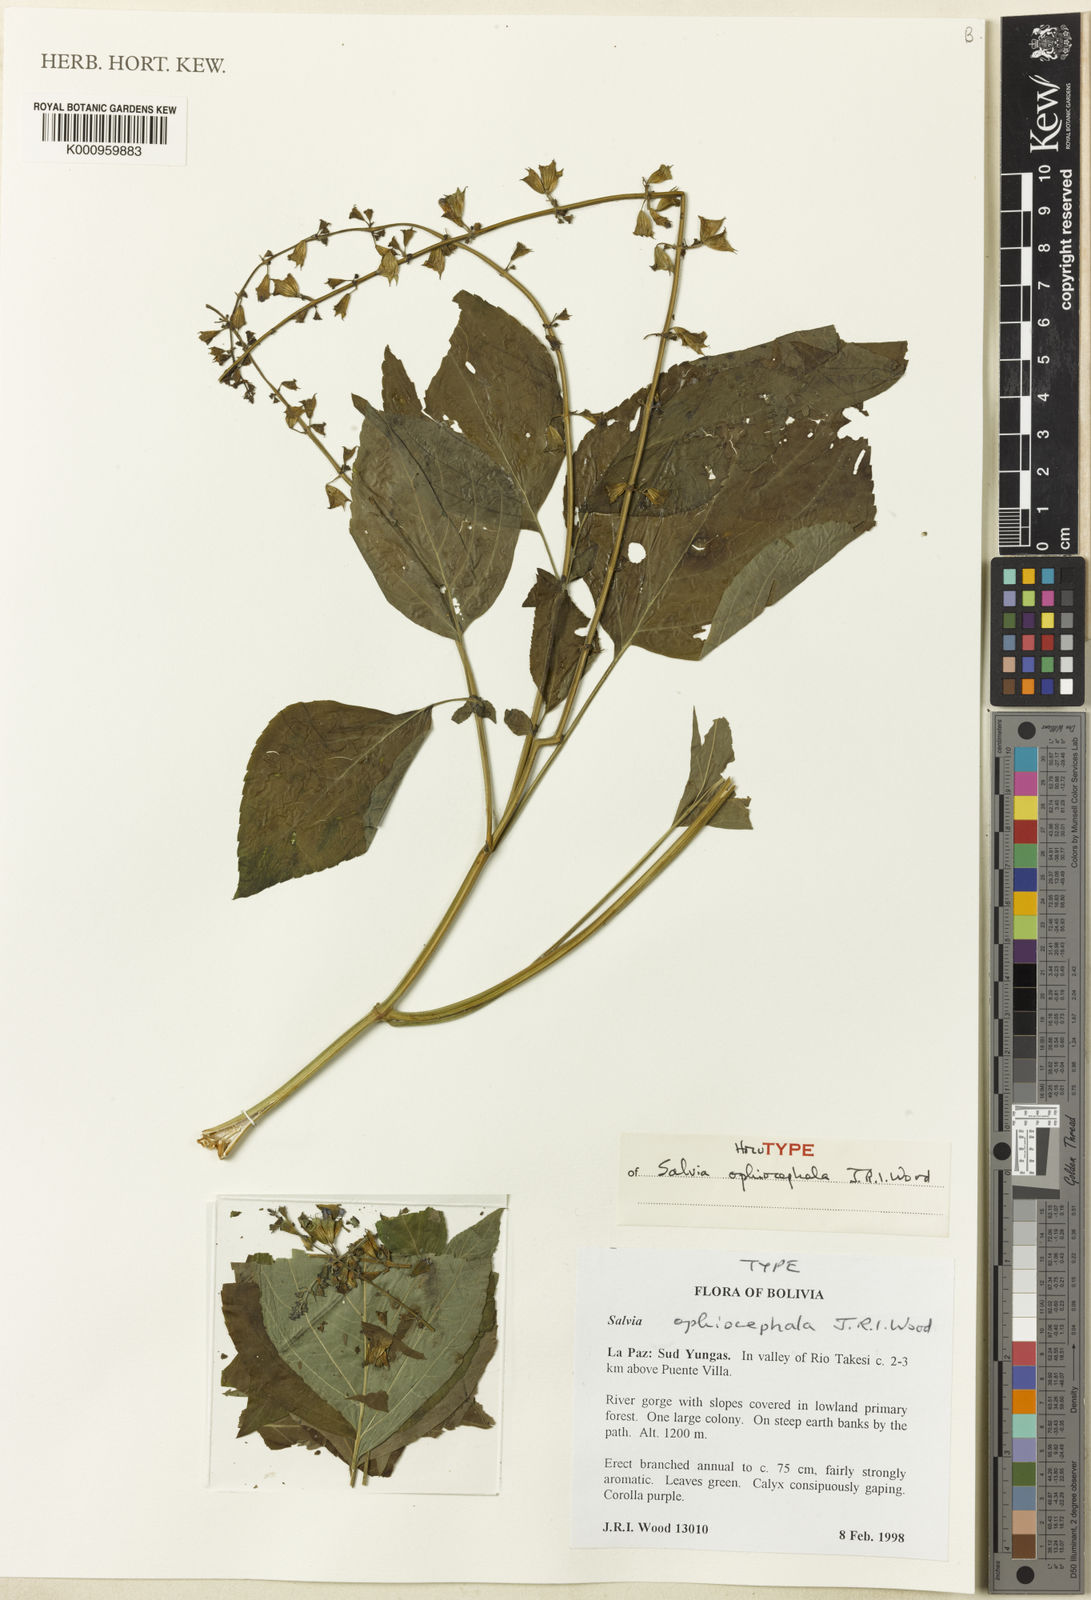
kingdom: Plantae
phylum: Tracheophyta
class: Magnoliopsida
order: Lamiales
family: Lamiaceae
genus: Salvia
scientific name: Salvia ophiocephala
